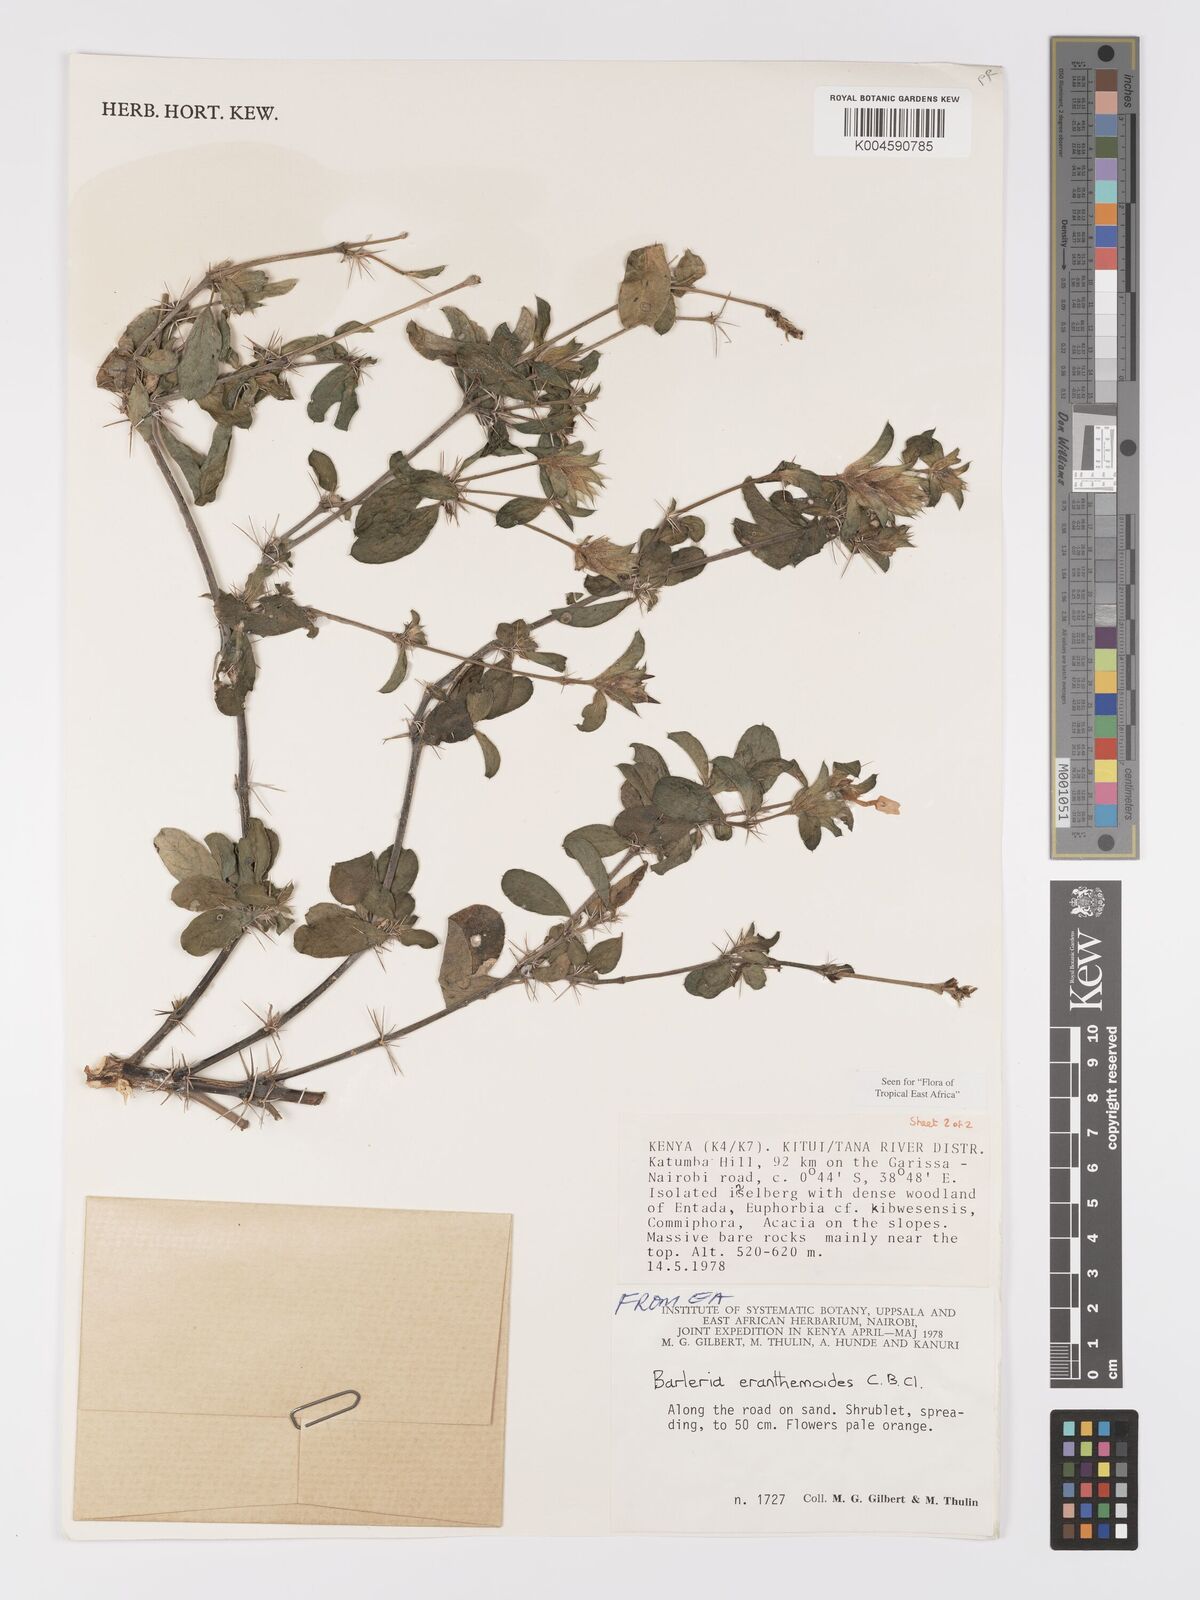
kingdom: Plantae
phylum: Tracheophyta
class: Magnoliopsida
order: Lamiales
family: Acanthaceae
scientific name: Acanthaceae
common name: Acanthaceae
